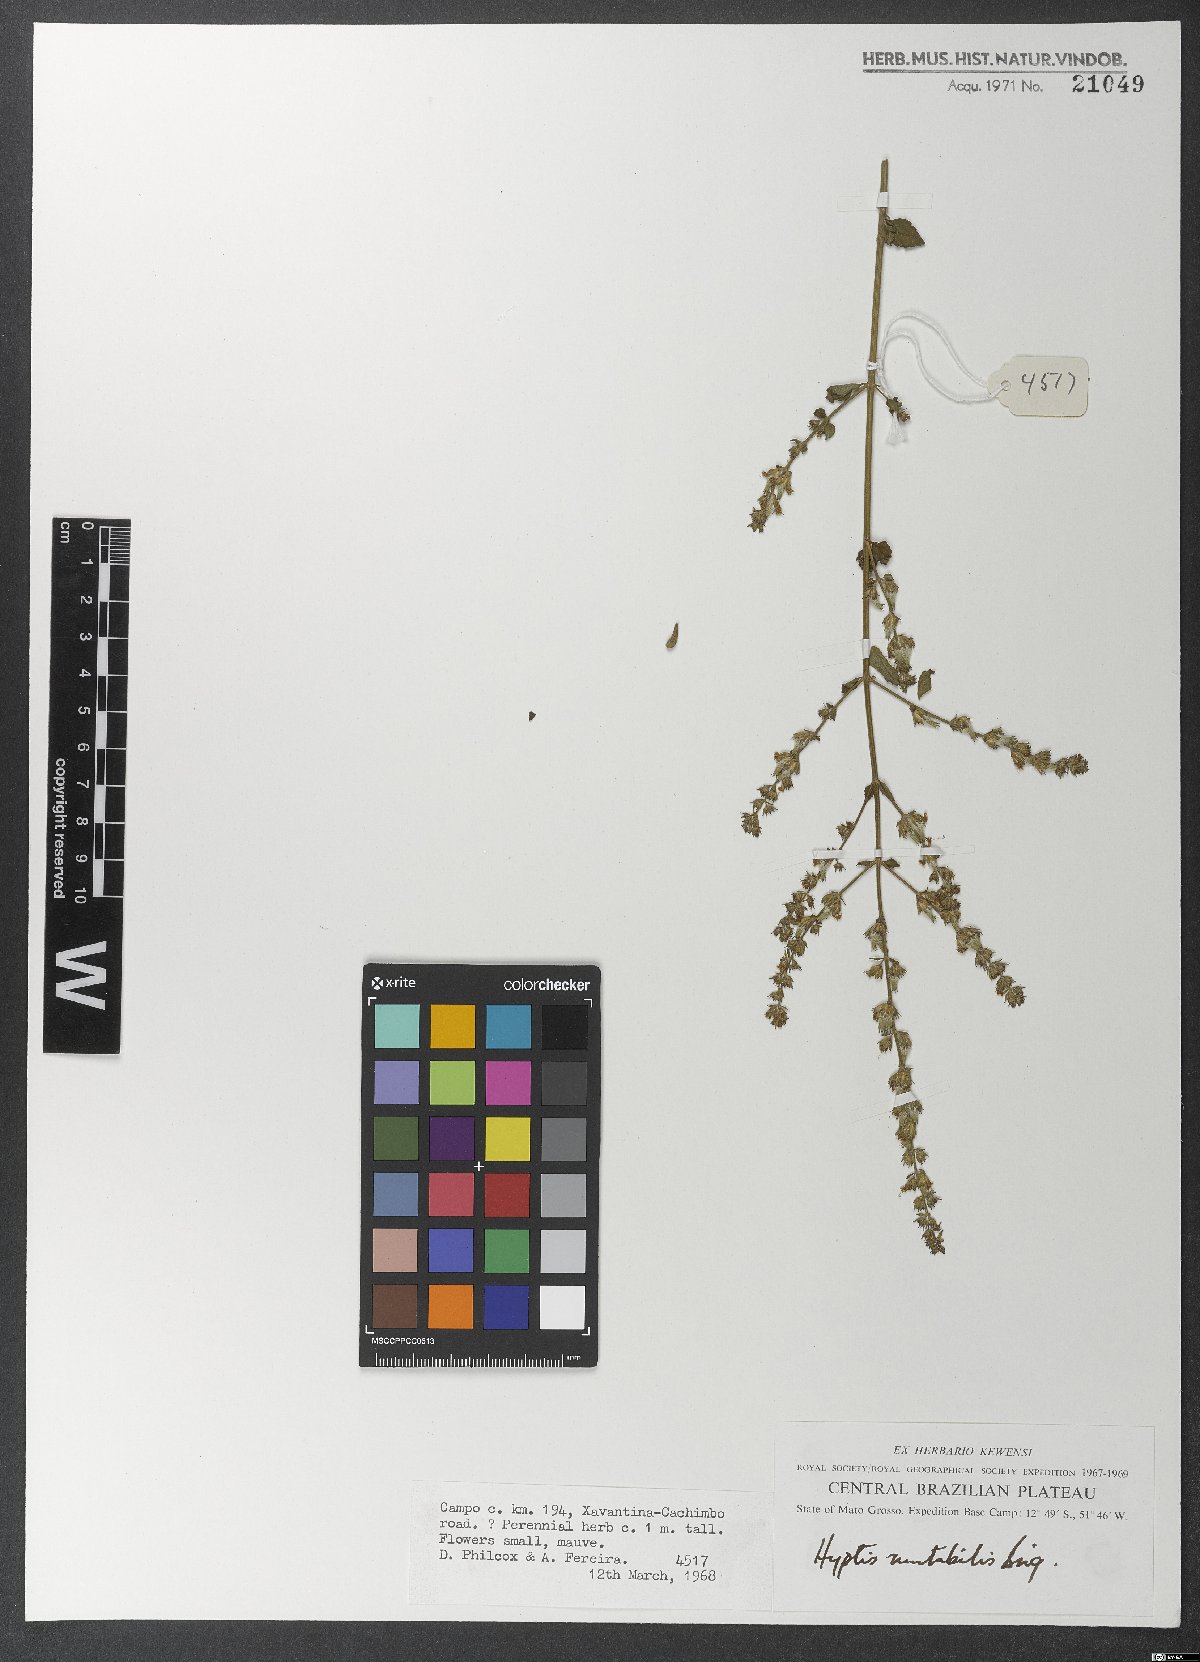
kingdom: Plantae
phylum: Tracheophyta
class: Magnoliopsida
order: Lamiales
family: Lamiaceae
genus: Cantinoa
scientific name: Cantinoa mutabilis
